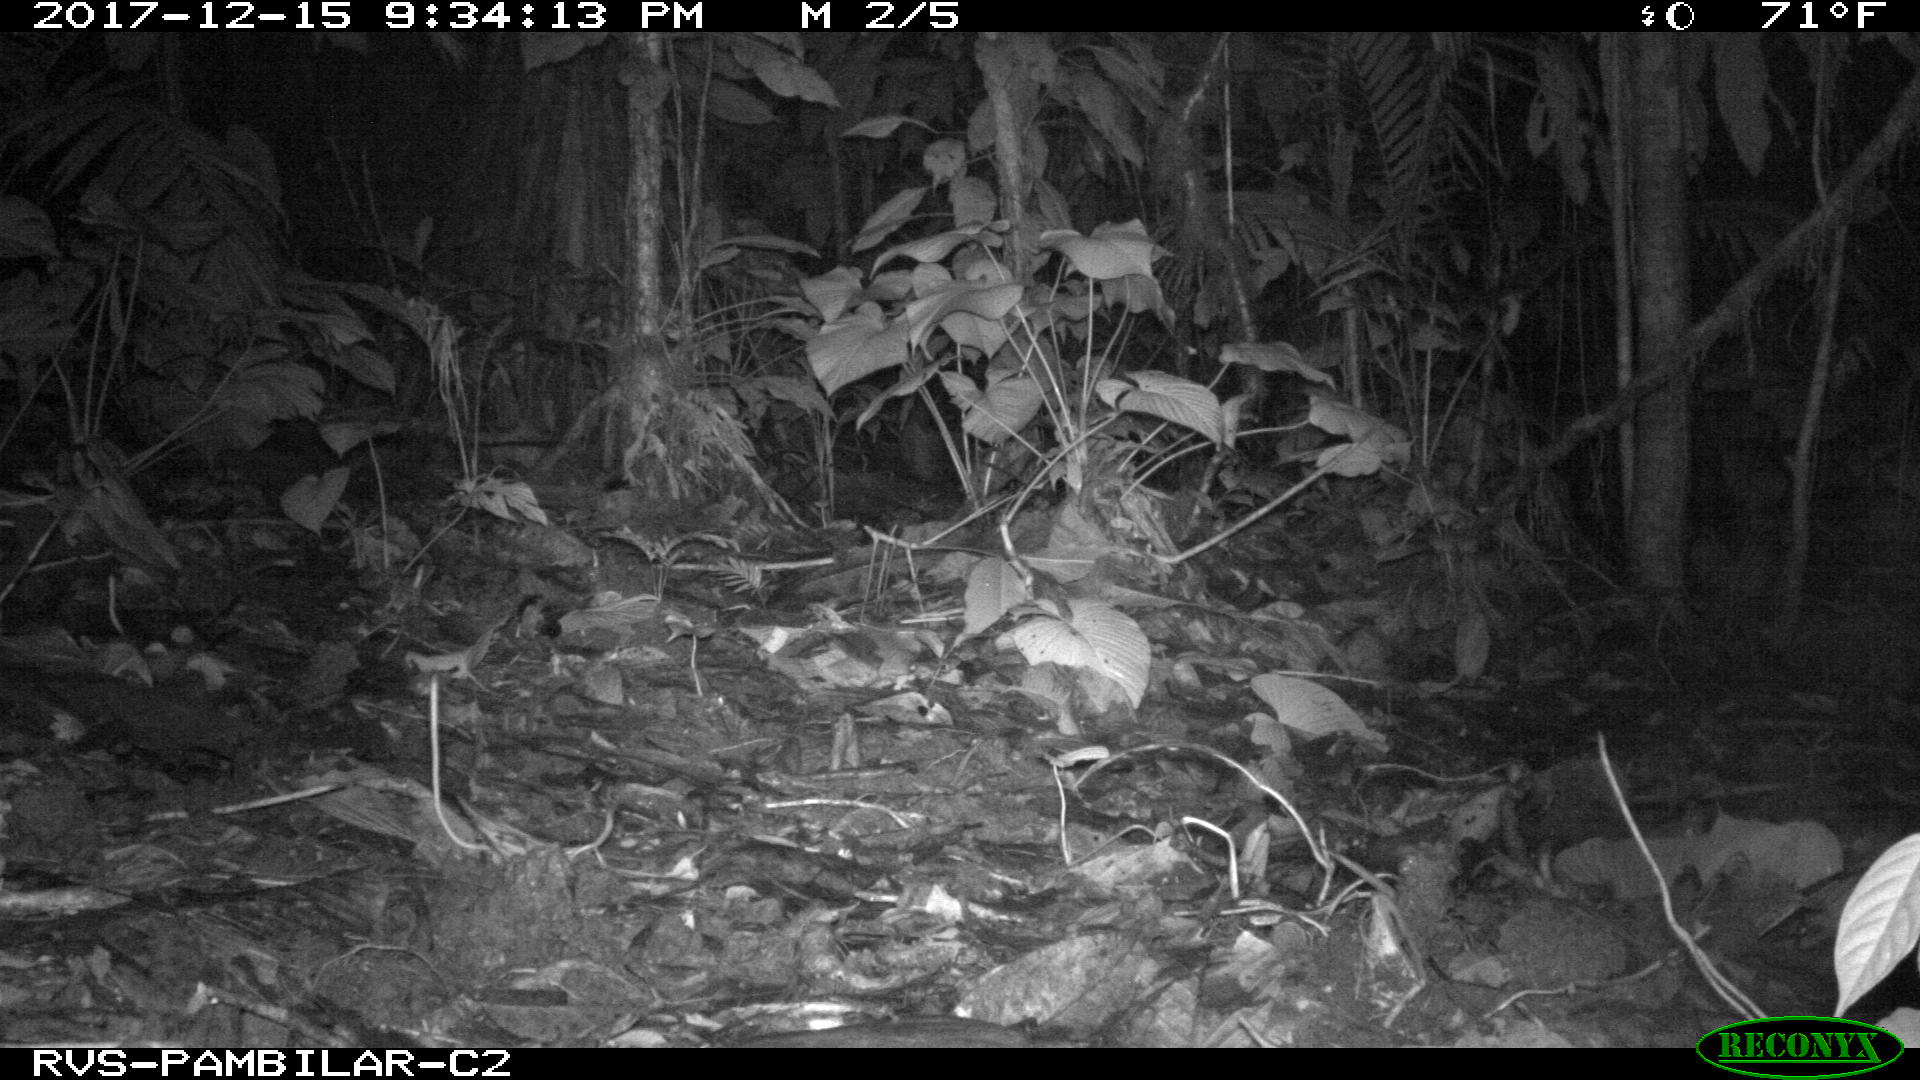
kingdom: Animalia
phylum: Chordata
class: Mammalia
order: Cingulata
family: Dasypodidae
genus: Dasypus
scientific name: Dasypus novemcinctus
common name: Nine-banded armadillo
